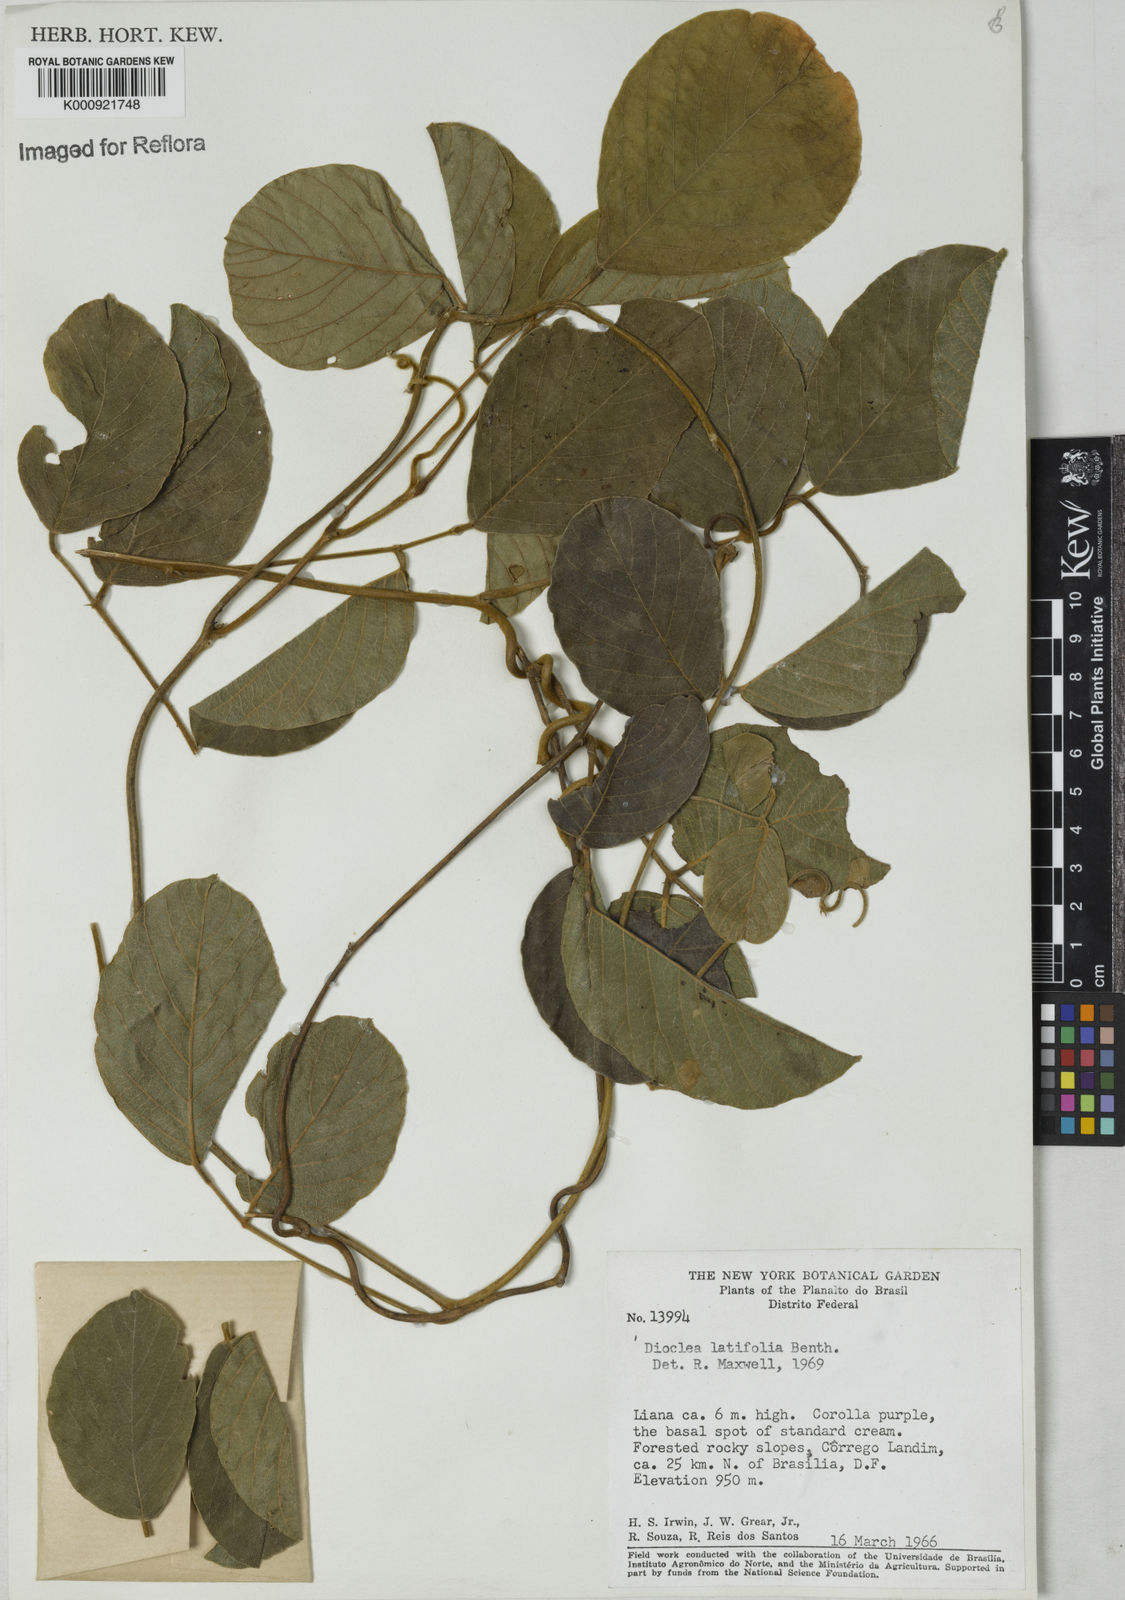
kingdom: Plantae
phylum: Tracheophyta
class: Magnoliopsida
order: Fabales
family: Fabaceae
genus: Macropsychanthus
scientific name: Macropsychanthus latifolius
